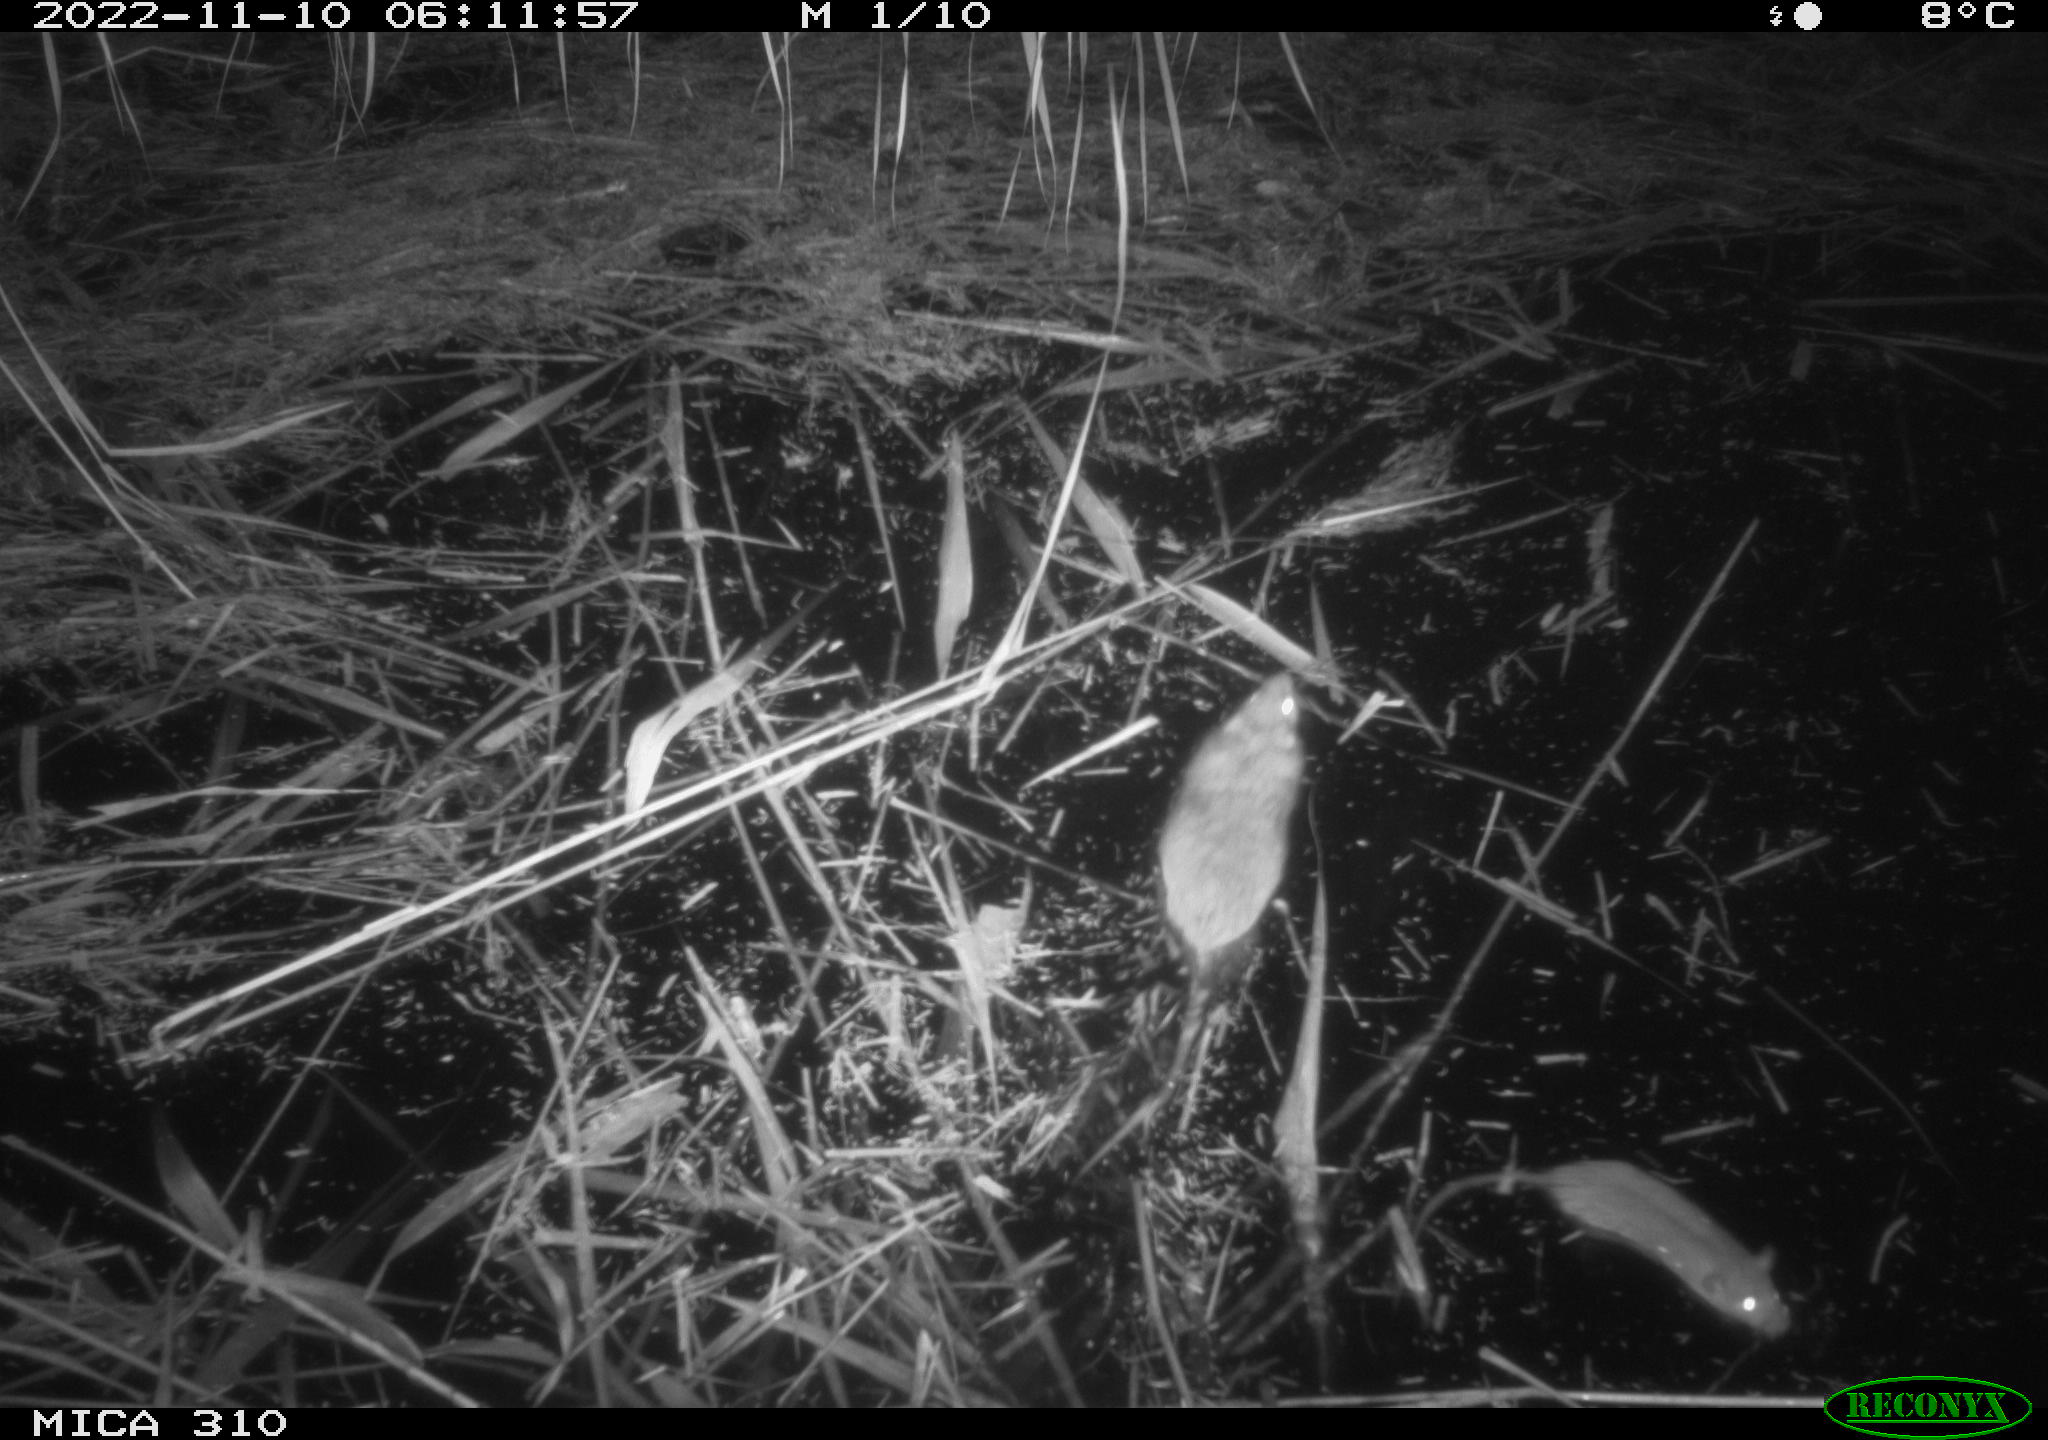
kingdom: Animalia
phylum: Chordata
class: Mammalia
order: Rodentia
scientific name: Rodentia
